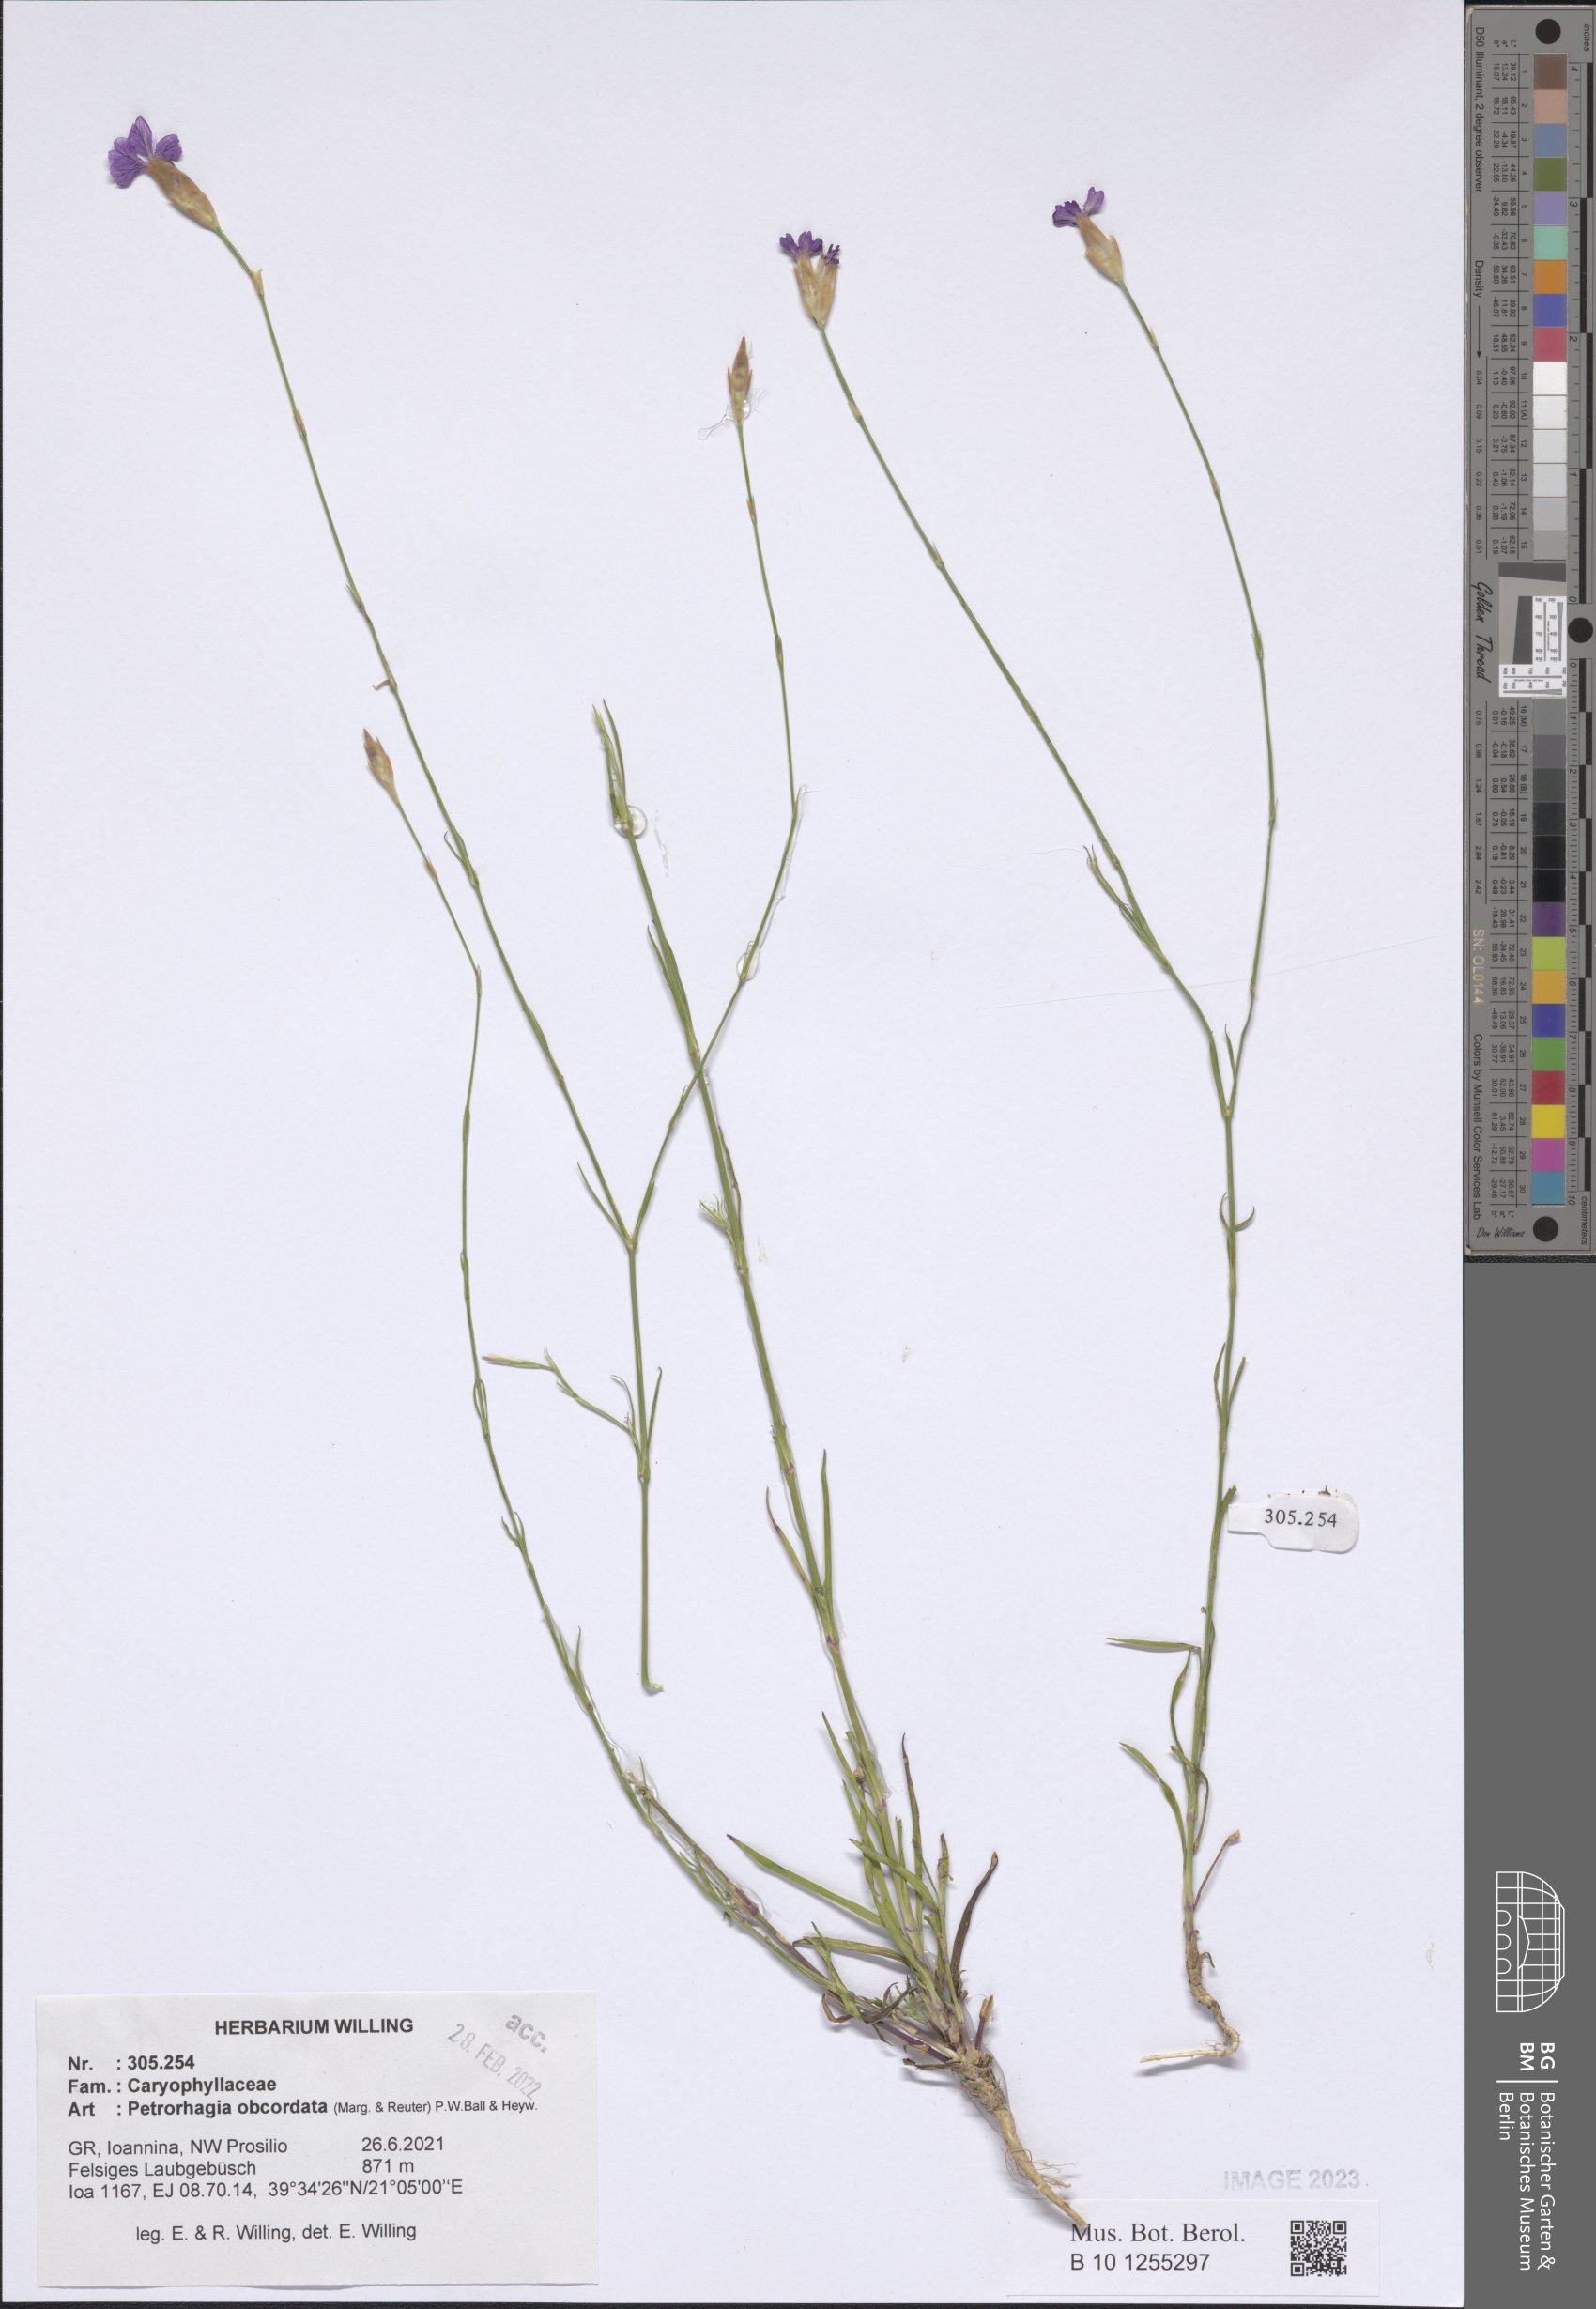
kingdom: Plantae
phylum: Tracheophyta
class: Magnoliopsida
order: Caryophyllales
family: Caryophyllaceae
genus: Petrorhagia
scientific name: Petrorhagia obcordata
